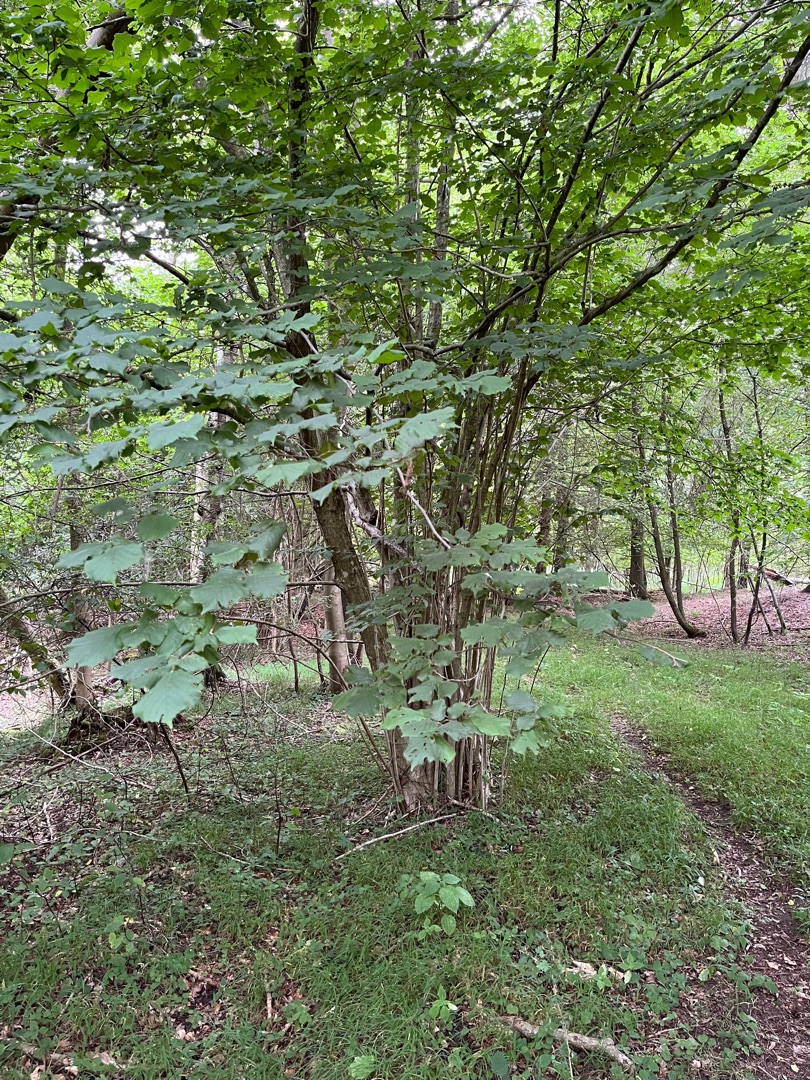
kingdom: Plantae
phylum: Tracheophyta
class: Magnoliopsida
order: Fagales
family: Betulaceae
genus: Corylus
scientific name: Corylus avellana
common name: Hassel
